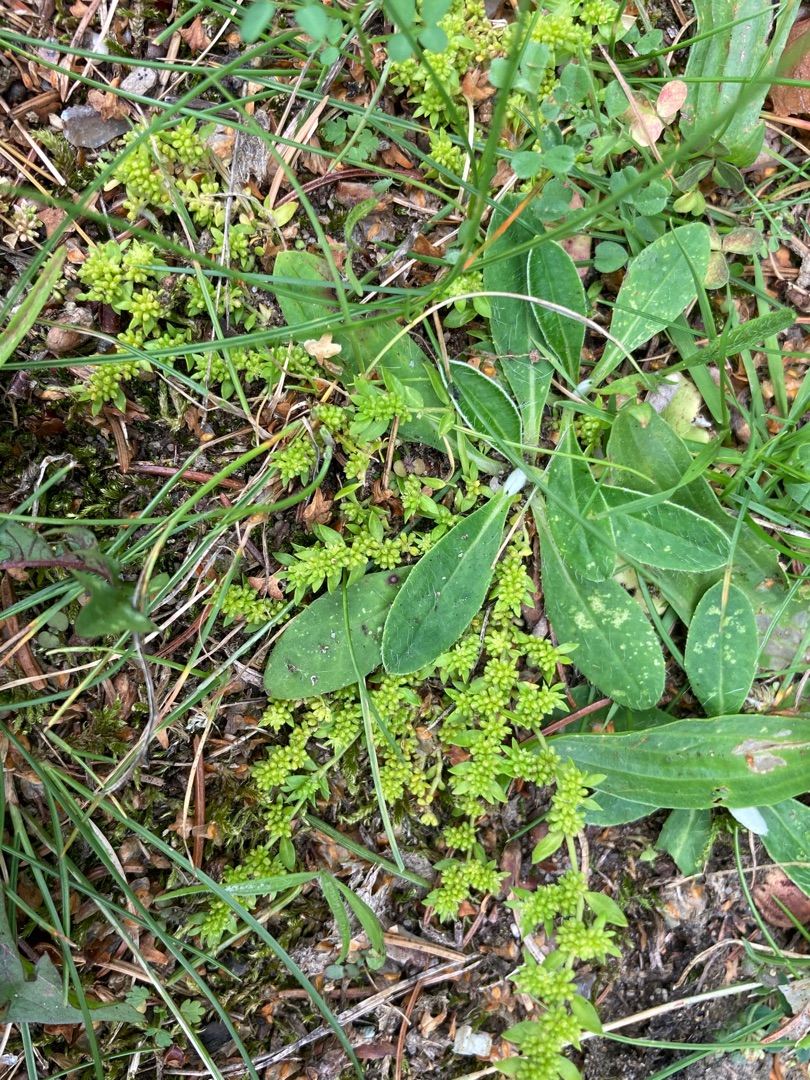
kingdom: Plantae
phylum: Tracheophyta
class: Magnoliopsida
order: Caryophyllales
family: Caryophyllaceae
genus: Herniaria
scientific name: Herniaria glabra
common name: Brudurt
